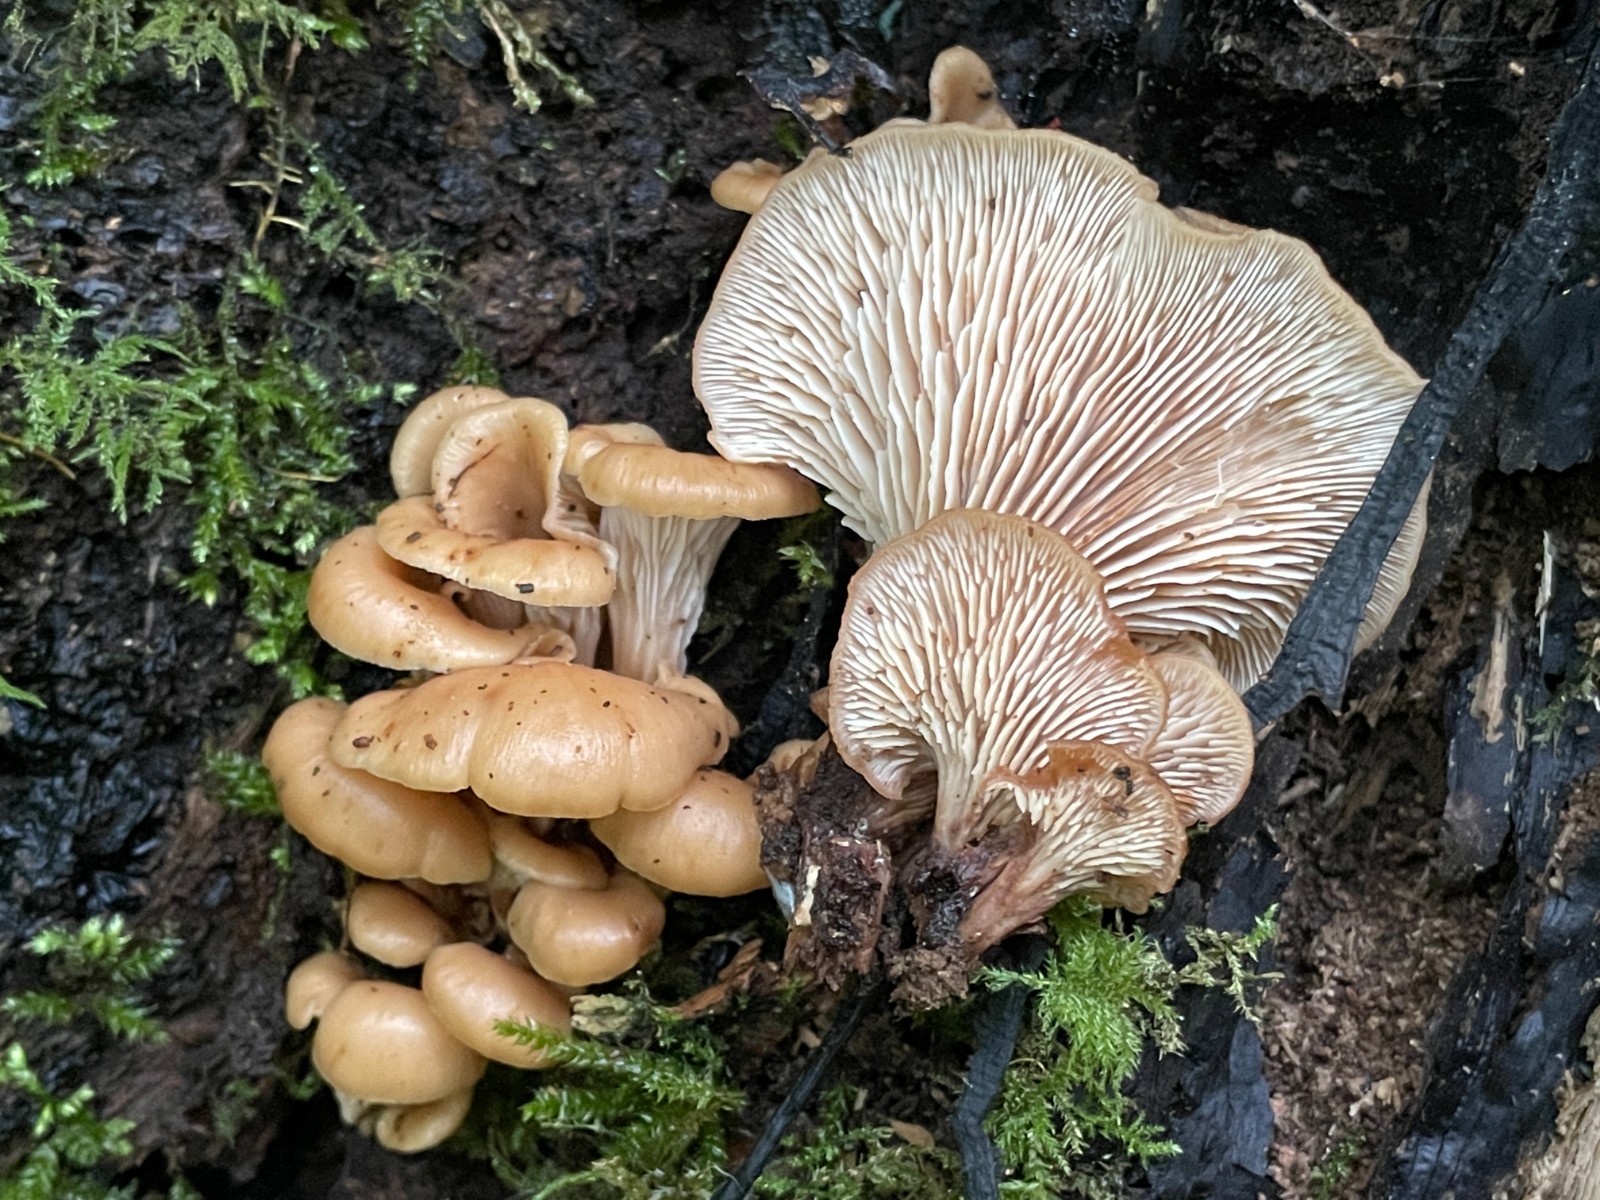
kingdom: Fungi
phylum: Basidiomycota
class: Agaricomycetes
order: Russulales
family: Auriscalpiaceae
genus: Lentinellus
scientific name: Lentinellus cochleatus
